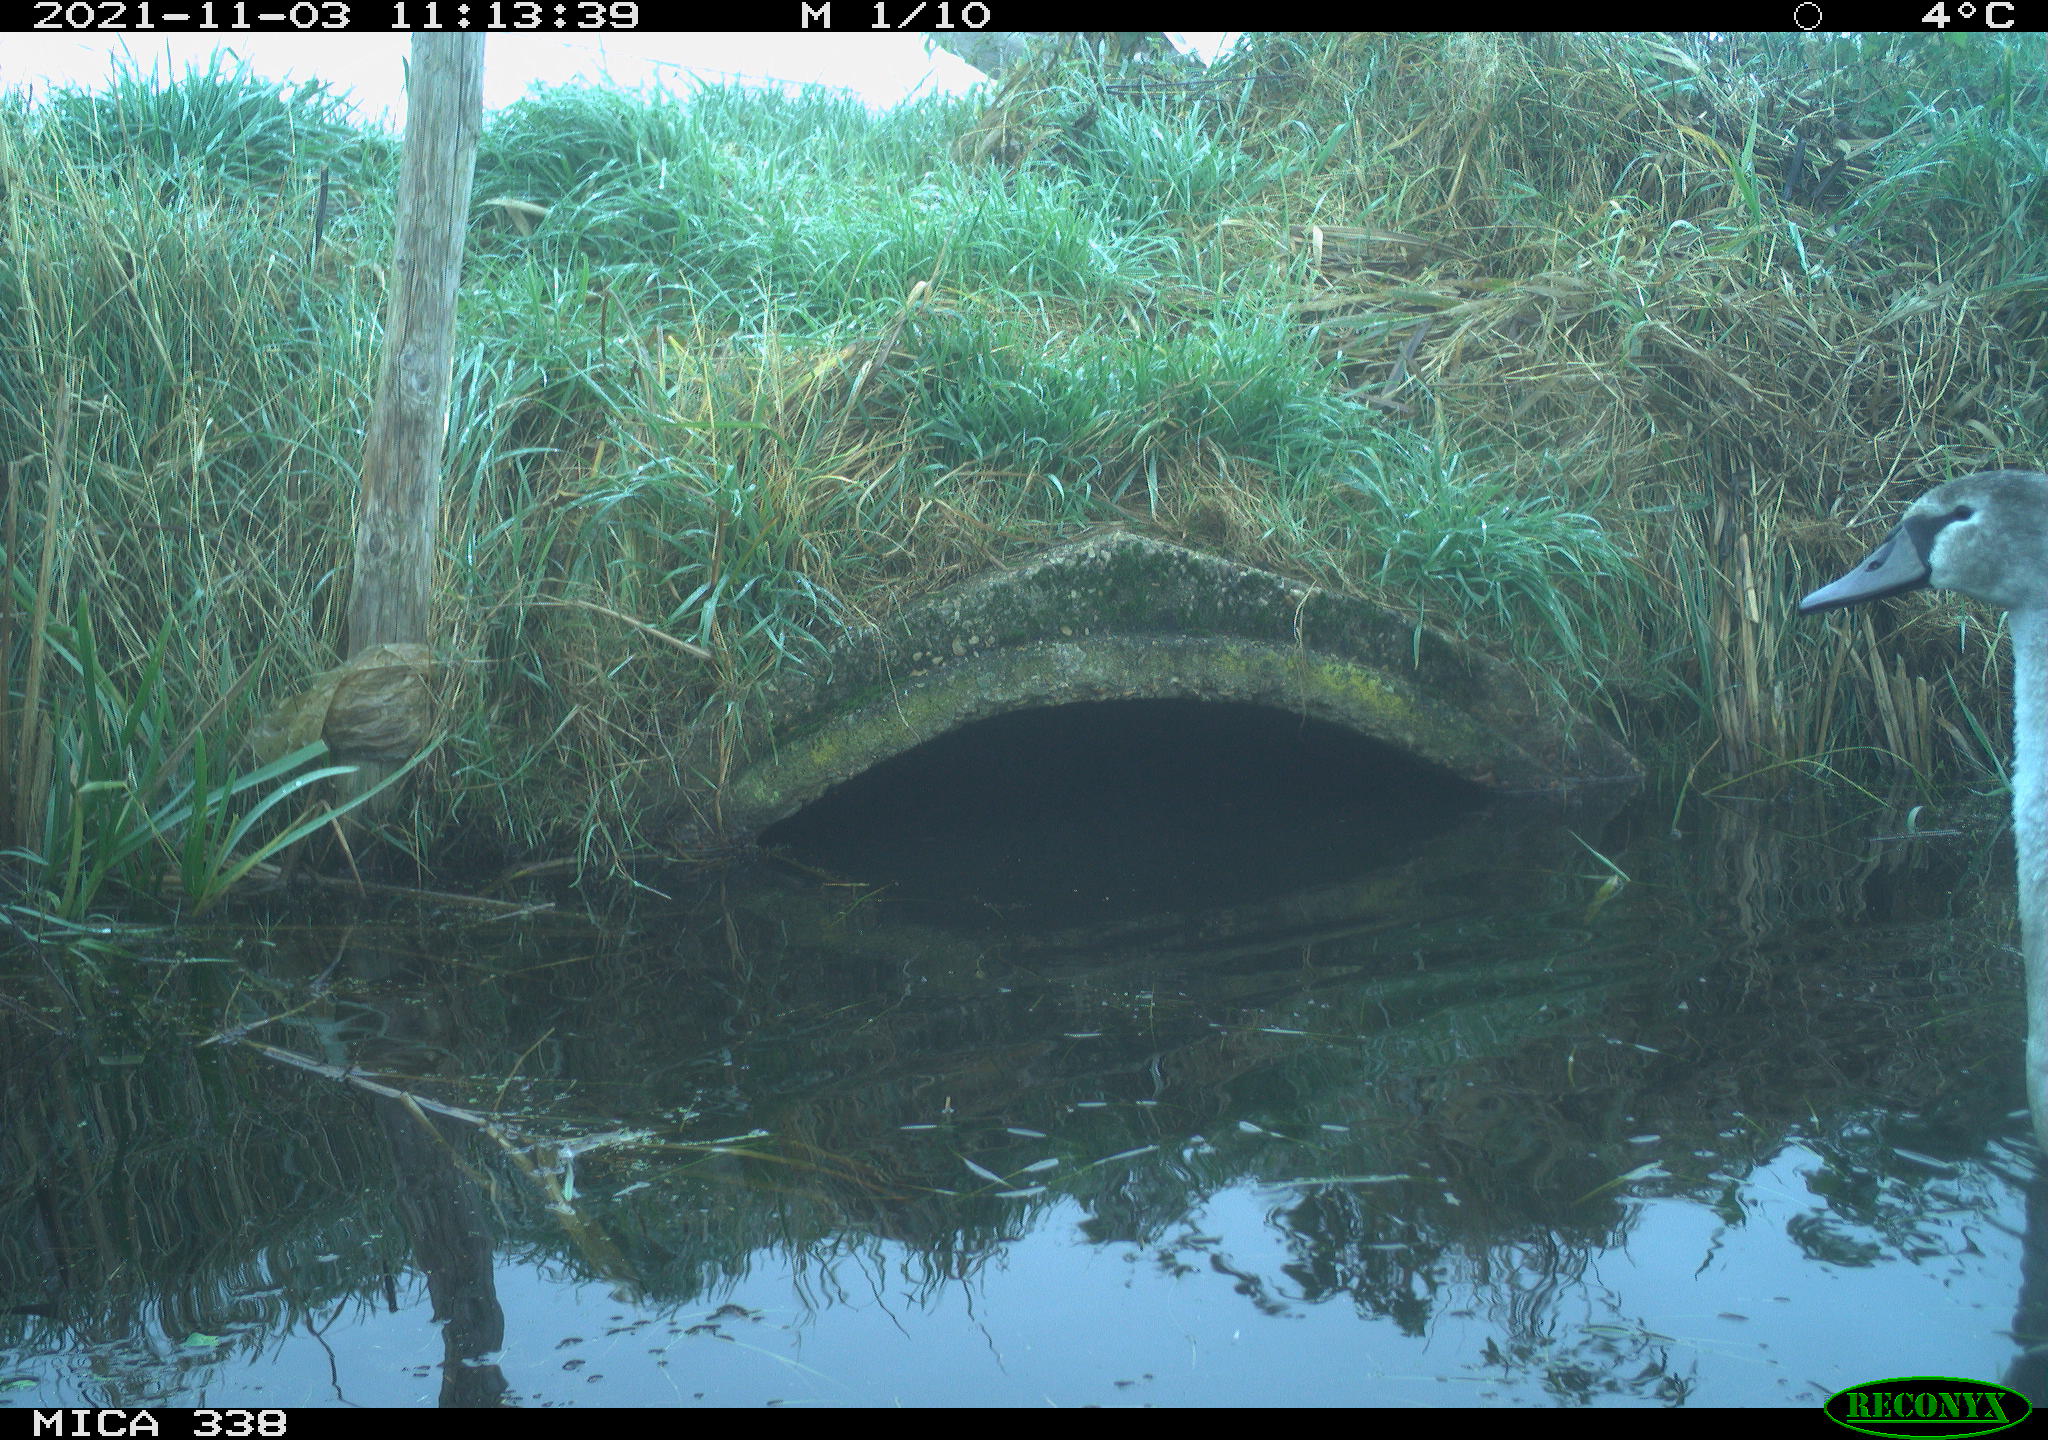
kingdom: Animalia
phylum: Chordata
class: Aves
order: Anseriformes
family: Anatidae
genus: Cygnus
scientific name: Cygnus olor
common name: Mute swan
